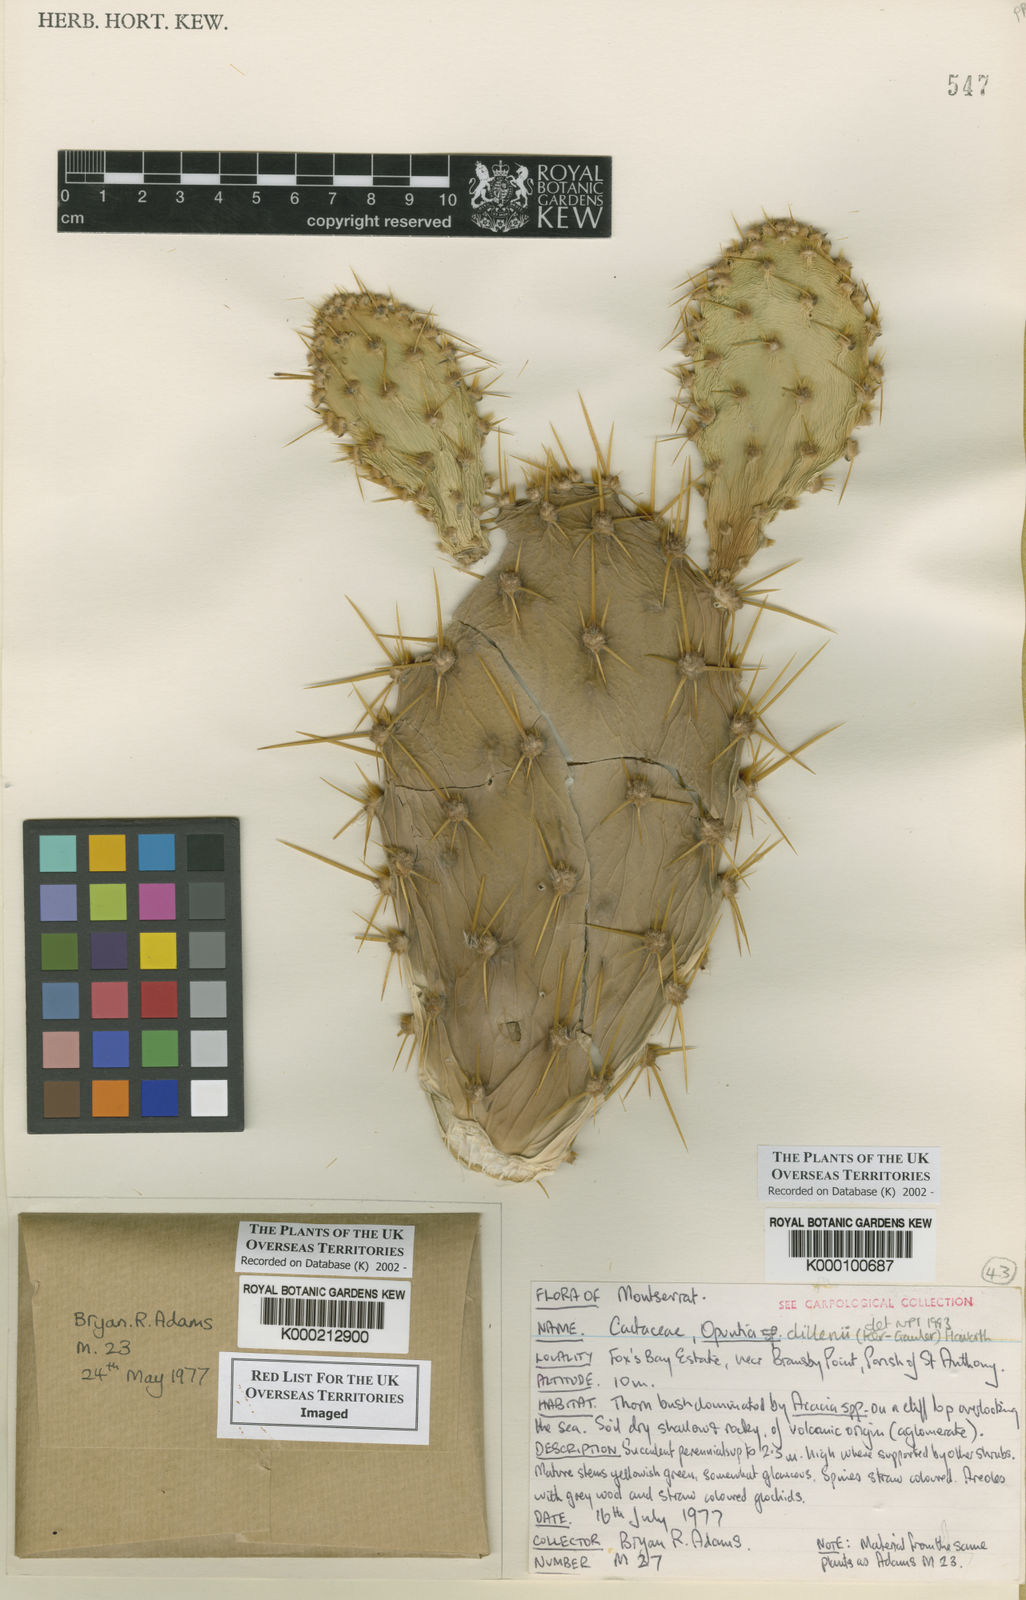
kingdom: Plantae
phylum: Tracheophyta
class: Magnoliopsida
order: Caryophyllales
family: Cactaceae
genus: Opuntia
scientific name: Opuntia dillenii
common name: Sour prickle
